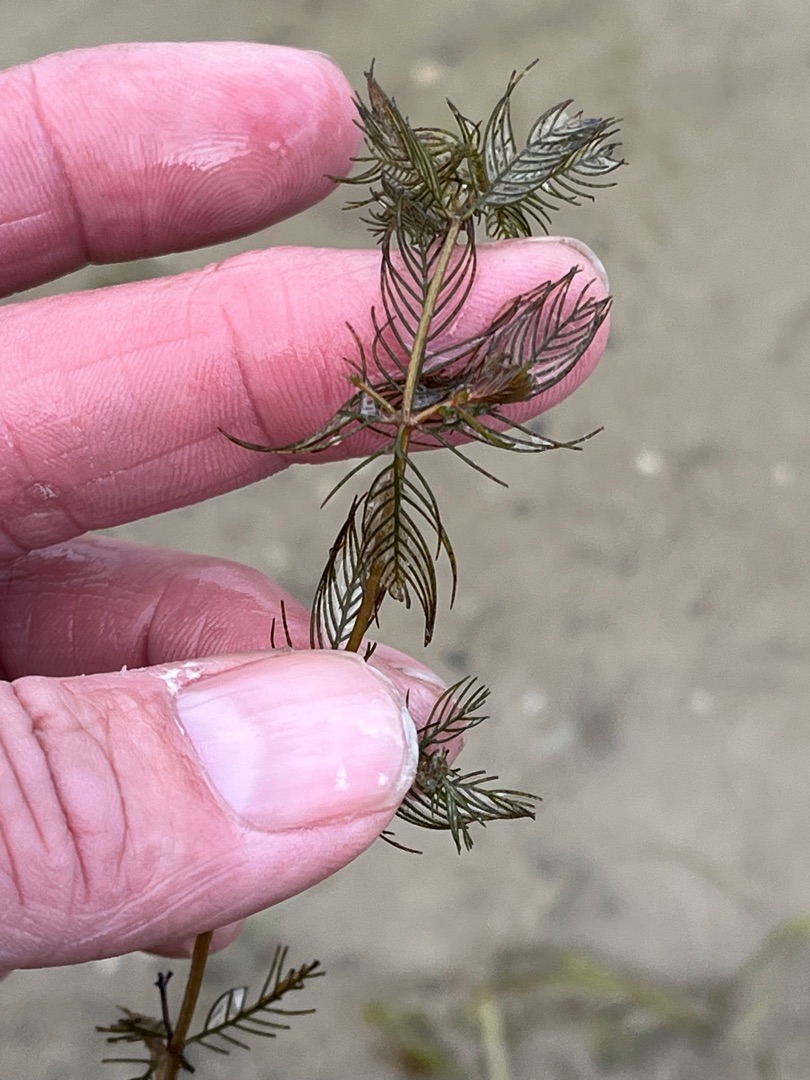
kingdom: Plantae
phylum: Tracheophyta
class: Magnoliopsida
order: Saxifragales
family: Haloragaceae
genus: Myriophyllum
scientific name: Myriophyllum spicatum
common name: Aks-tusindblad
